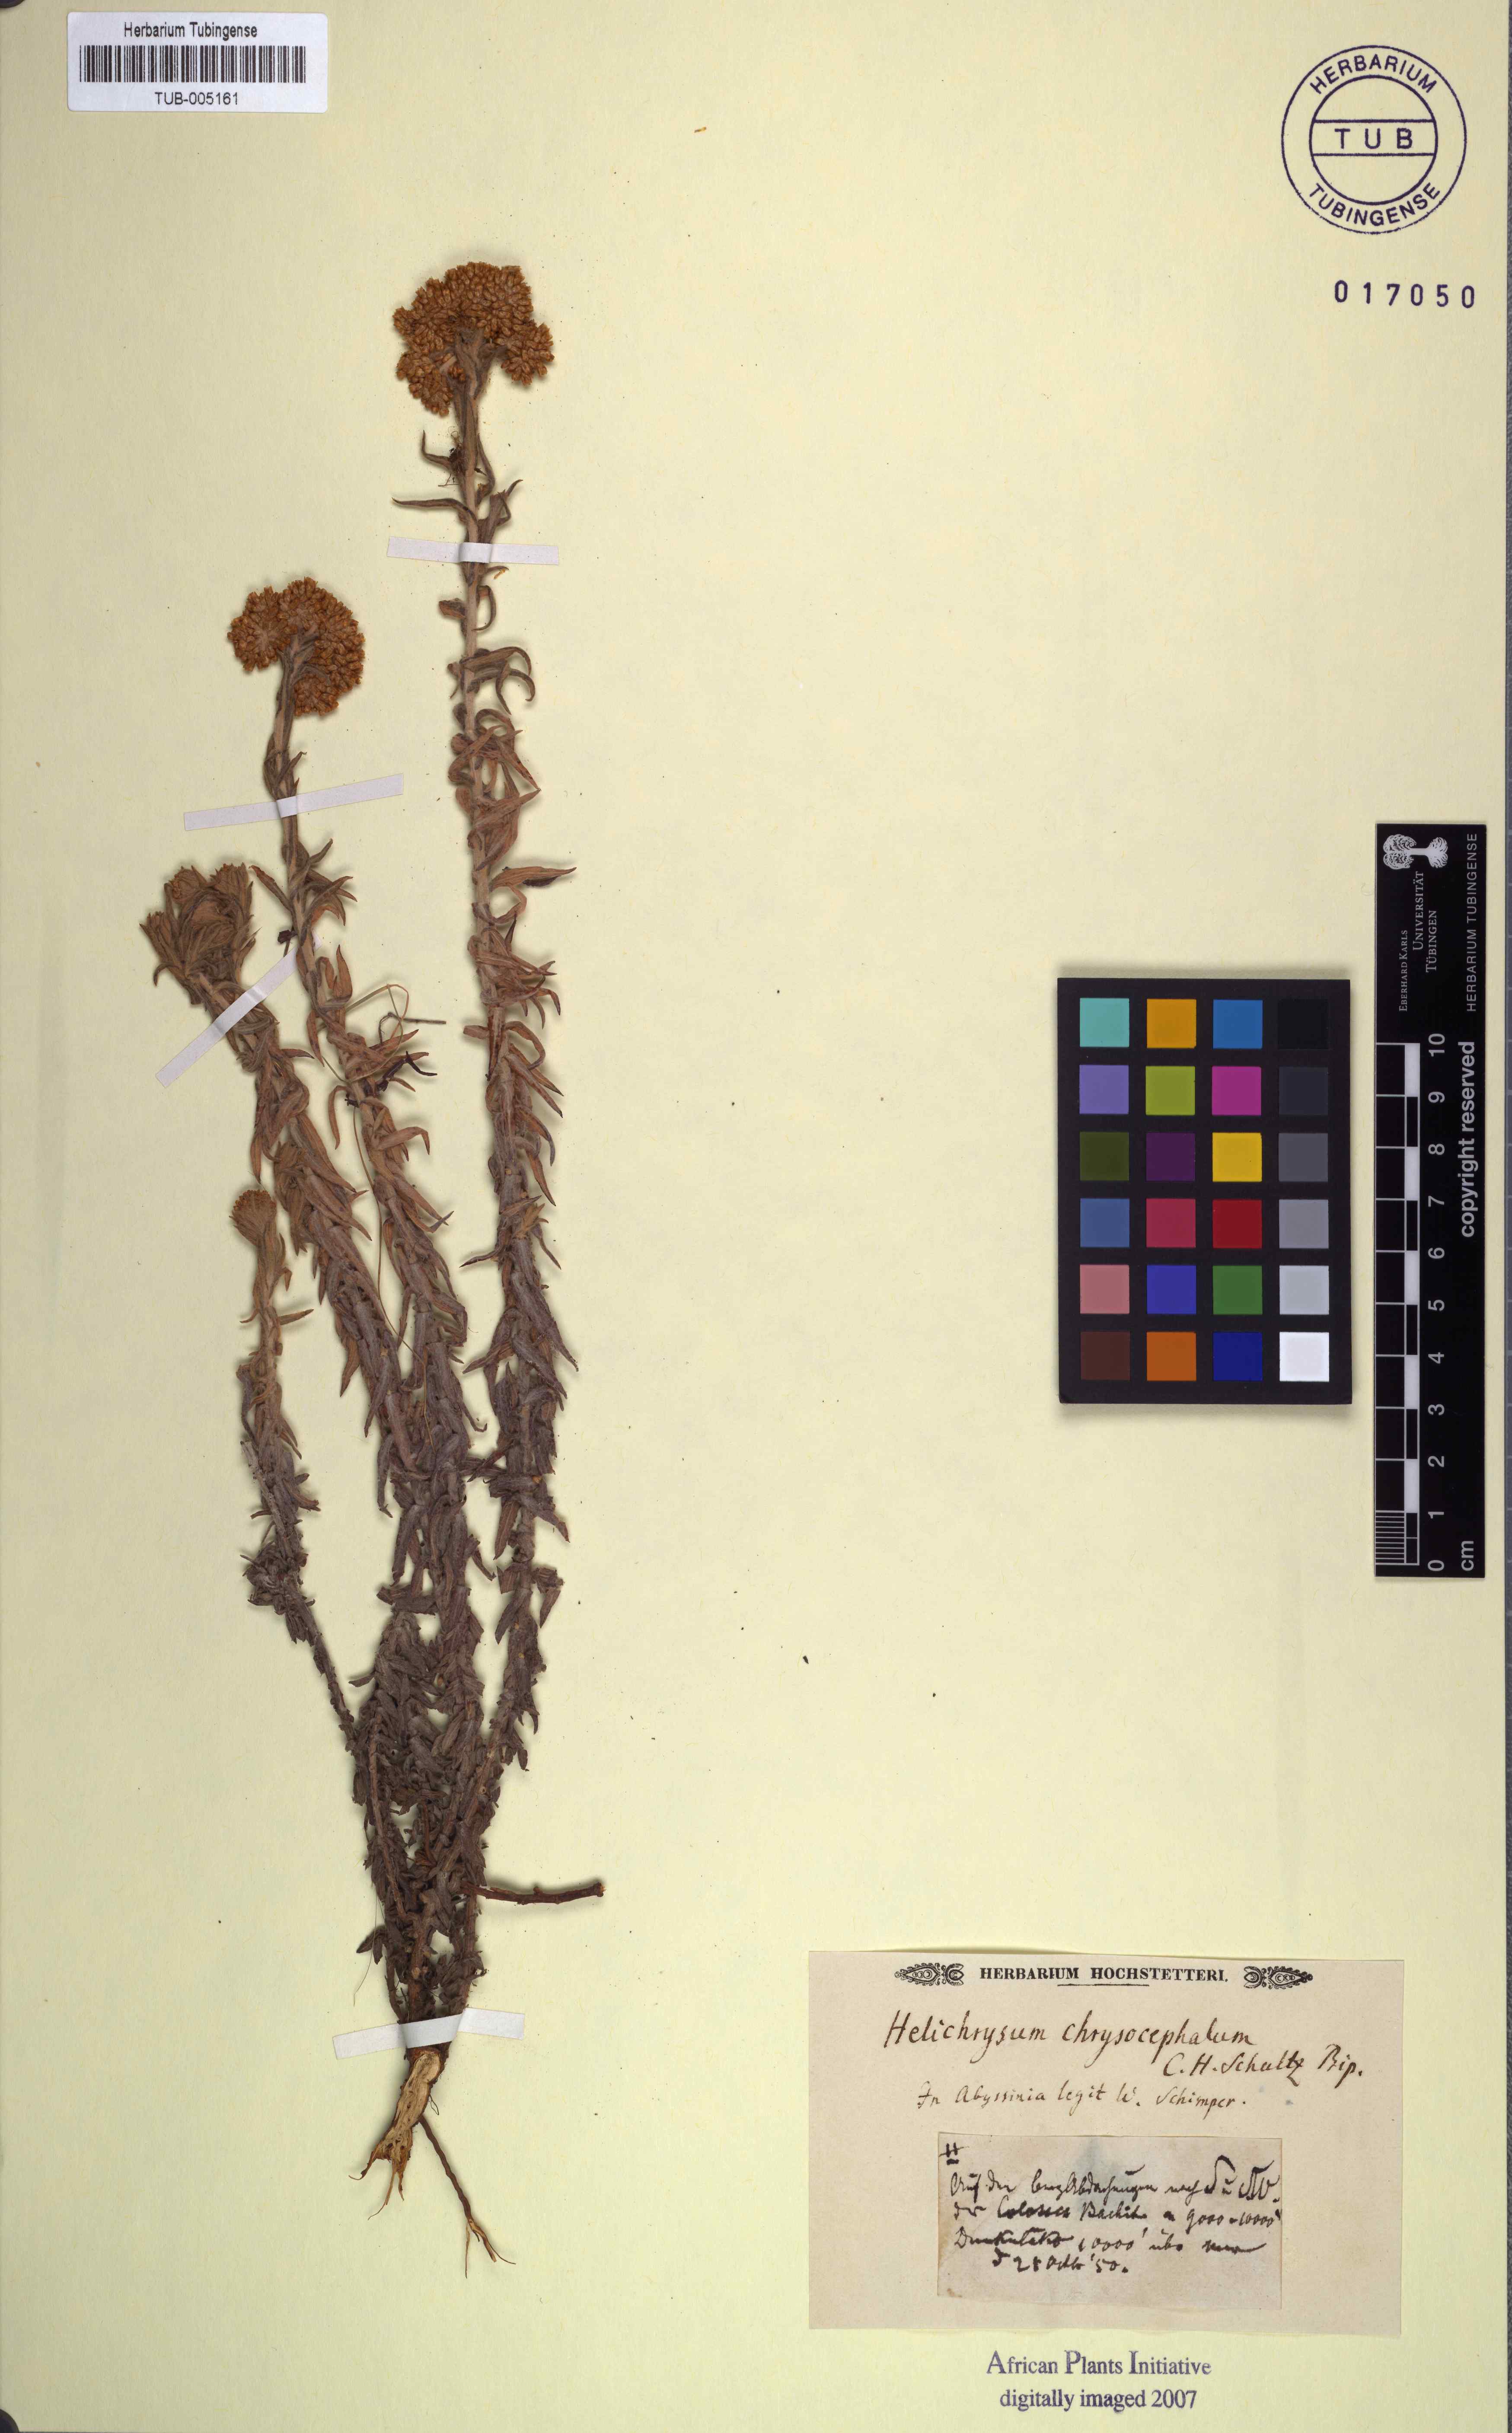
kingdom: Plantae
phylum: Tracheophyta
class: Magnoliopsida
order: Asterales
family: Asteraceae
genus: Helichrysum
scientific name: Helichrysum cymosum
